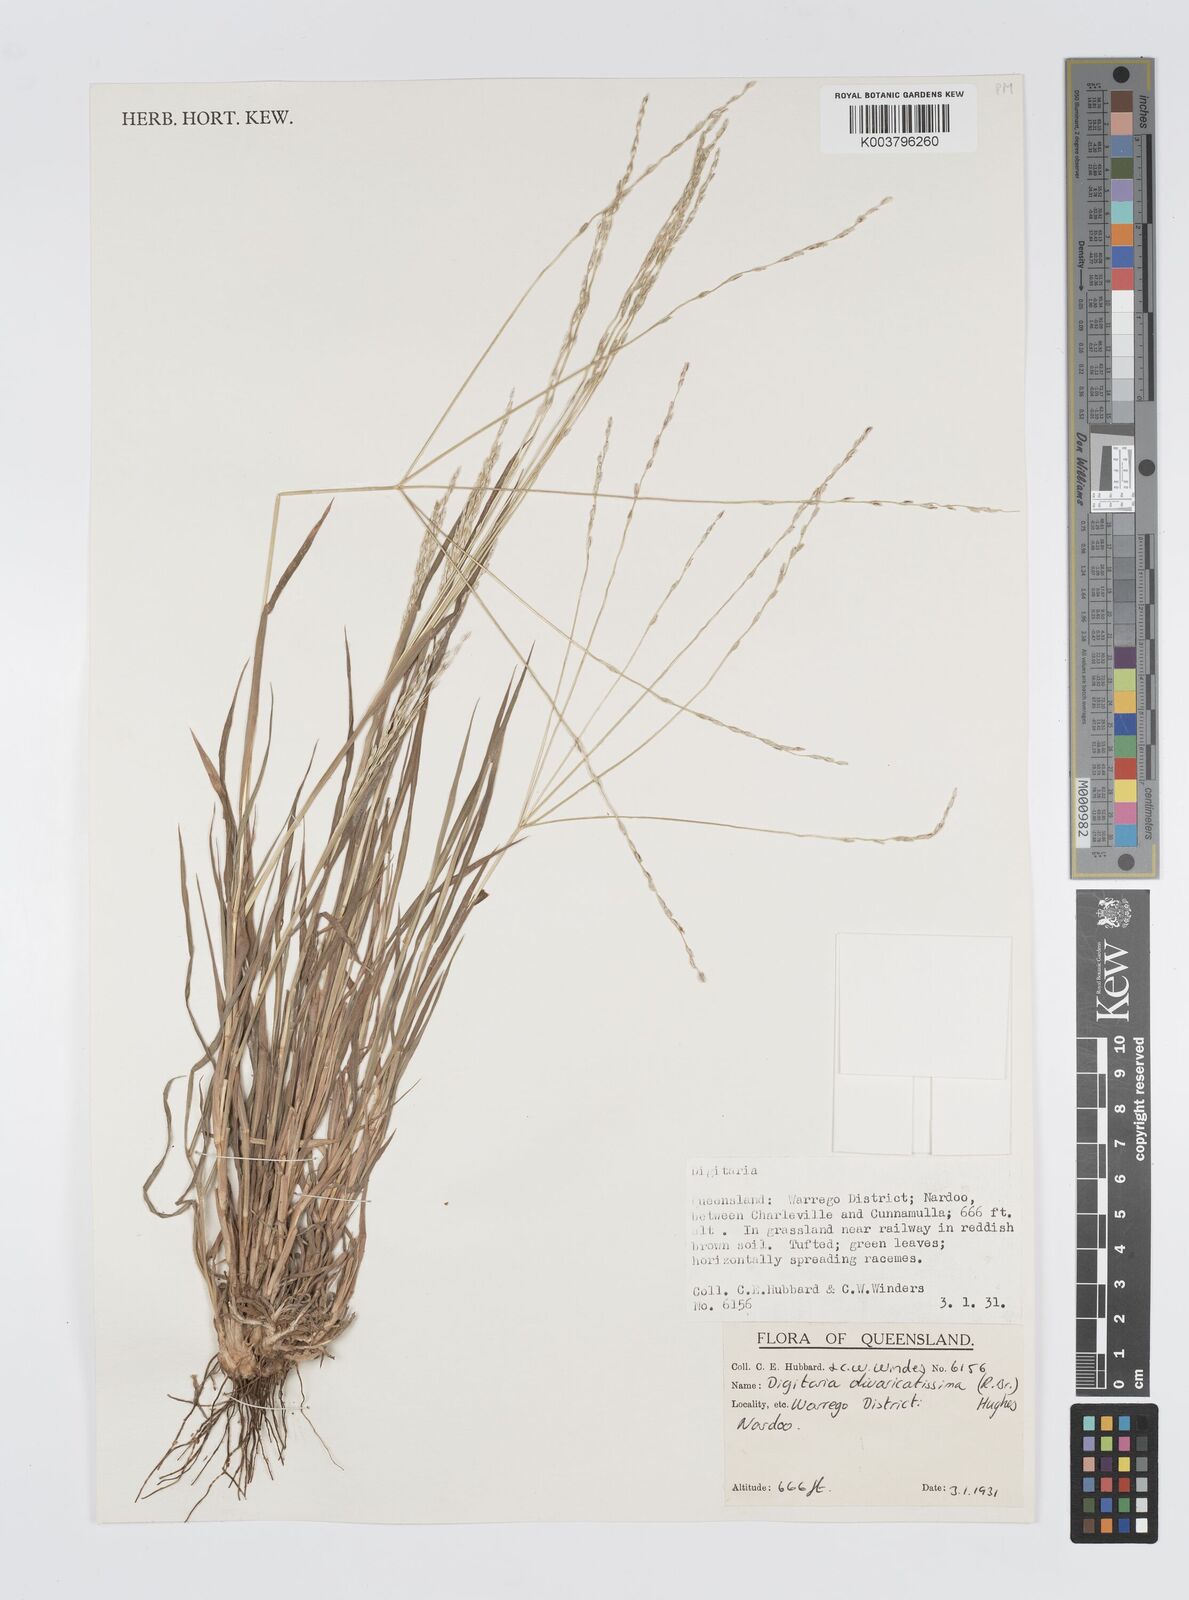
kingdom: Plantae
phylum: Tracheophyta
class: Liliopsida
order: Poales
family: Poaceae
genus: Digitaria
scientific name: Digitaria divaricatissima
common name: Crabgrass
